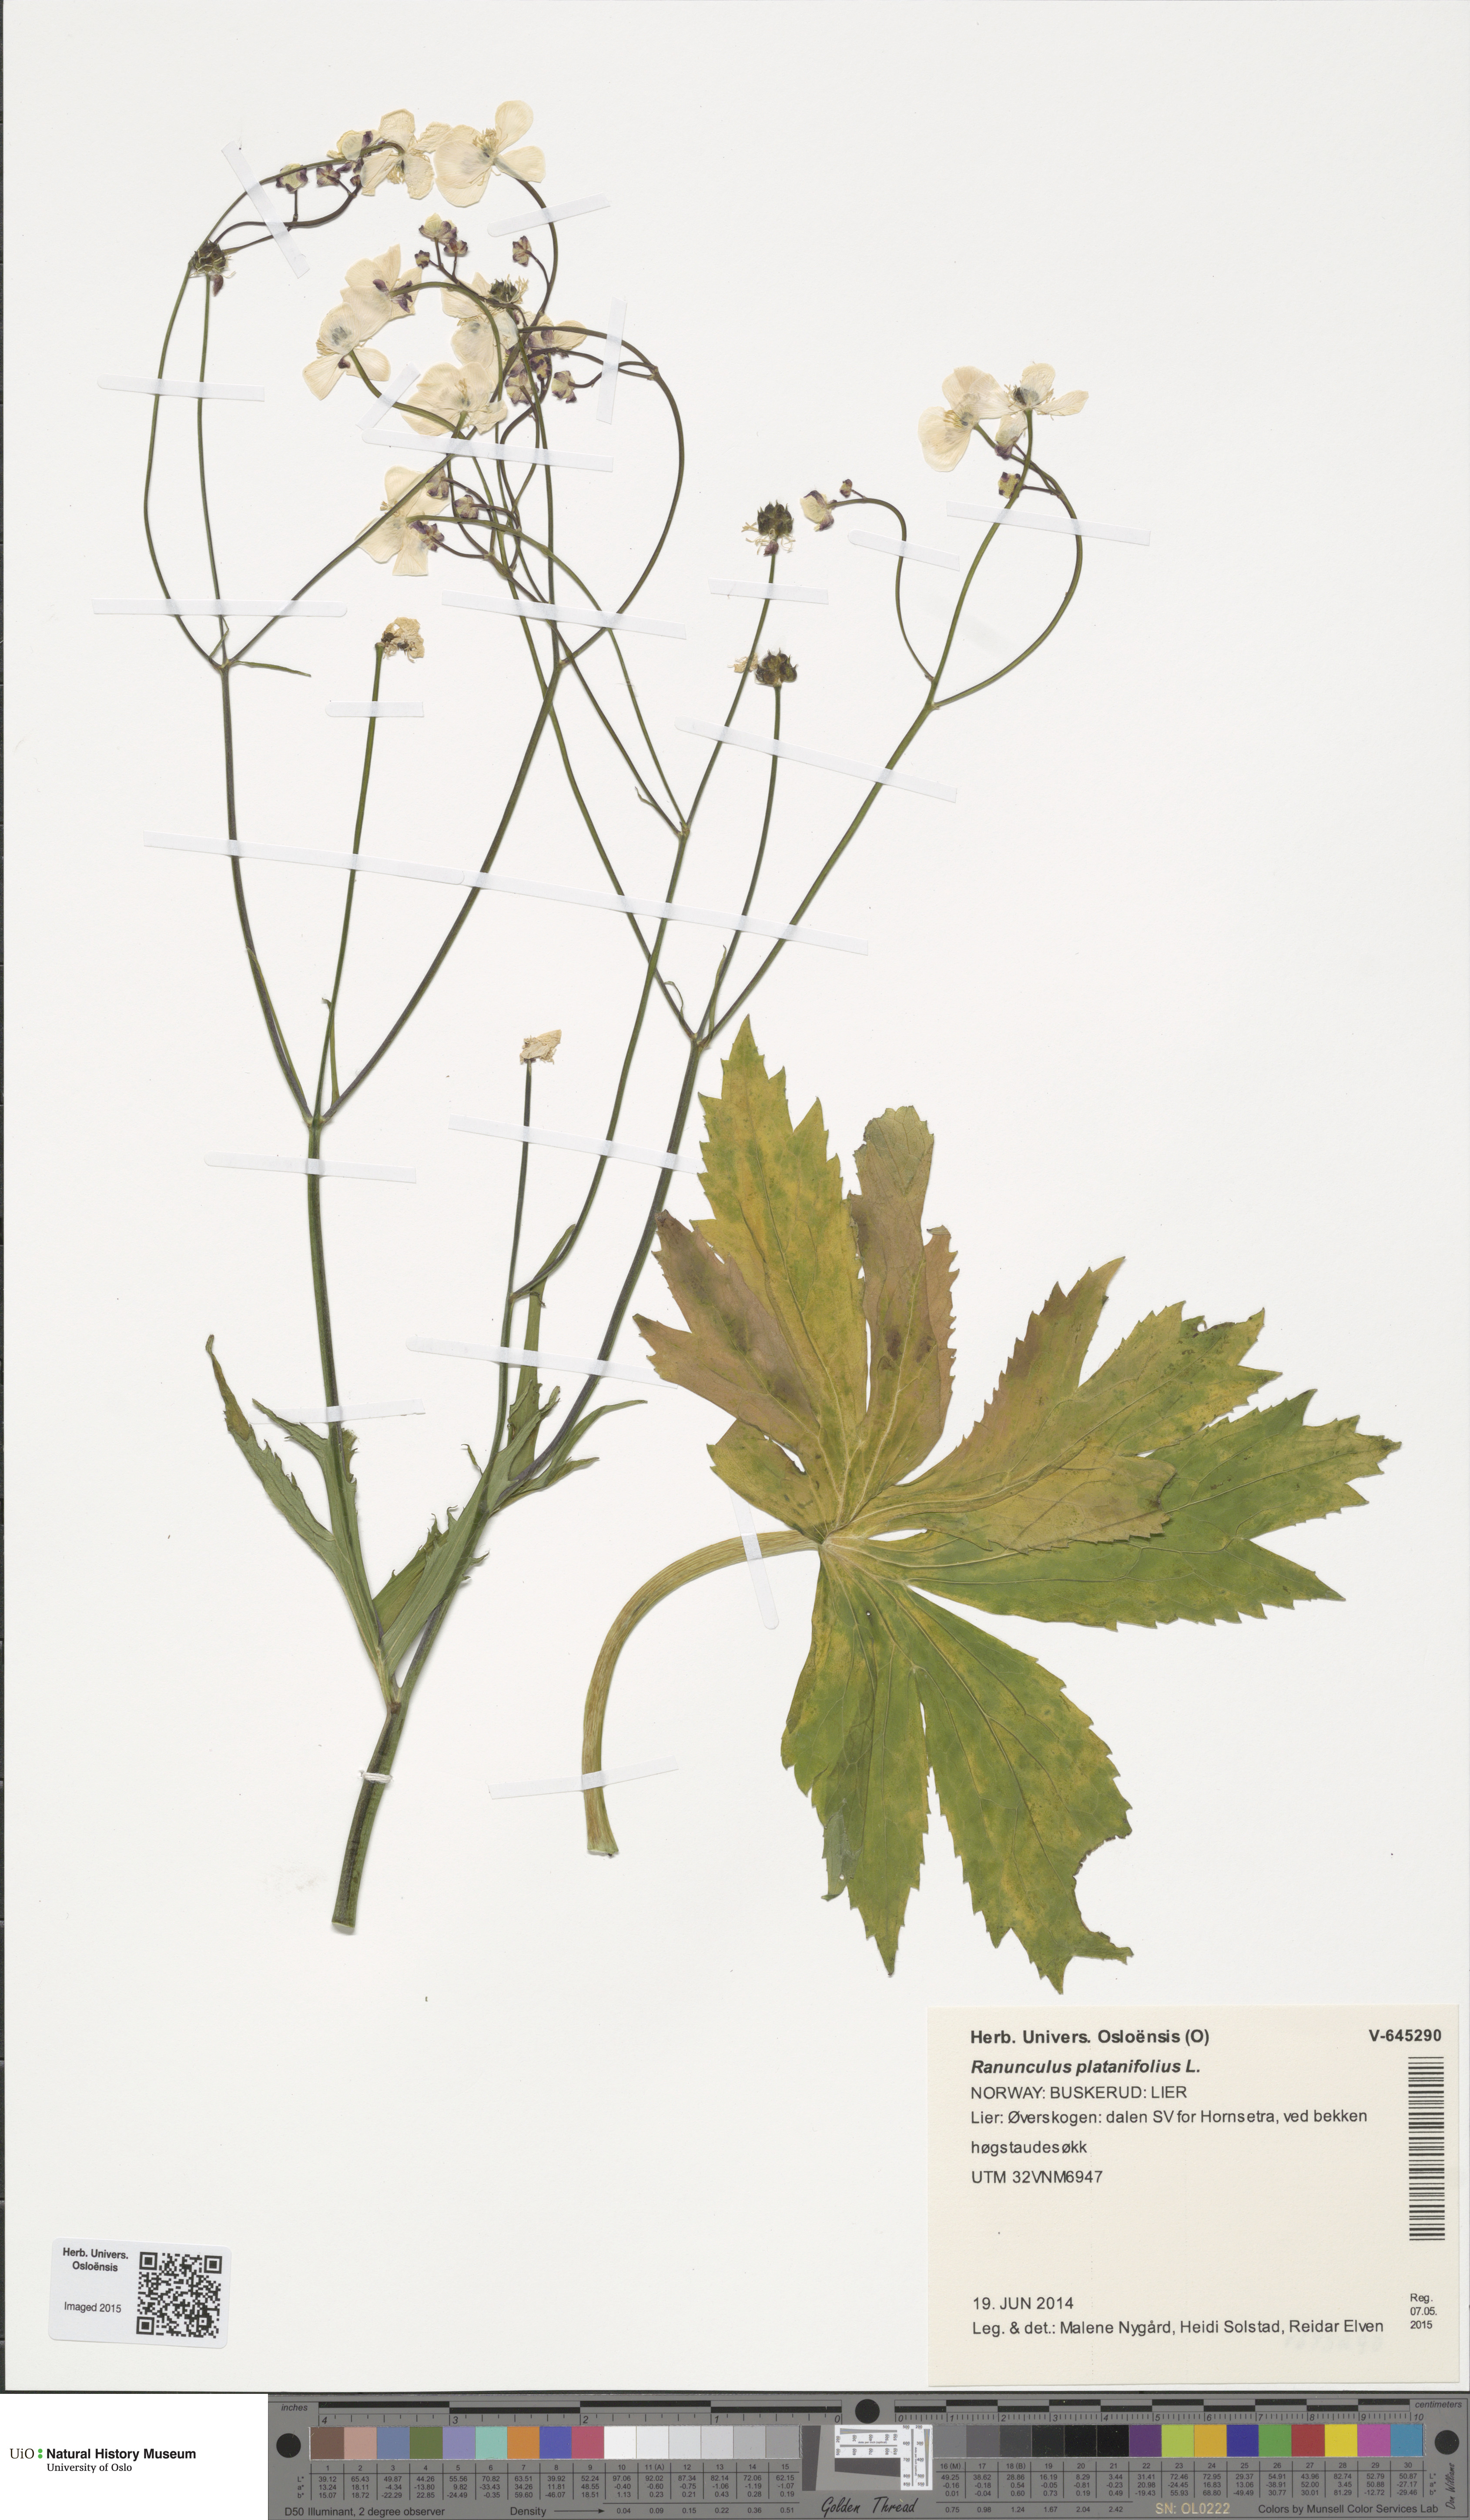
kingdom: Plantae
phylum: Tracheophyta
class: Magnoliopsida
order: Ranunculales
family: Ranunculaceae
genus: Ranunculus
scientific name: Ranunculus platanifolius
